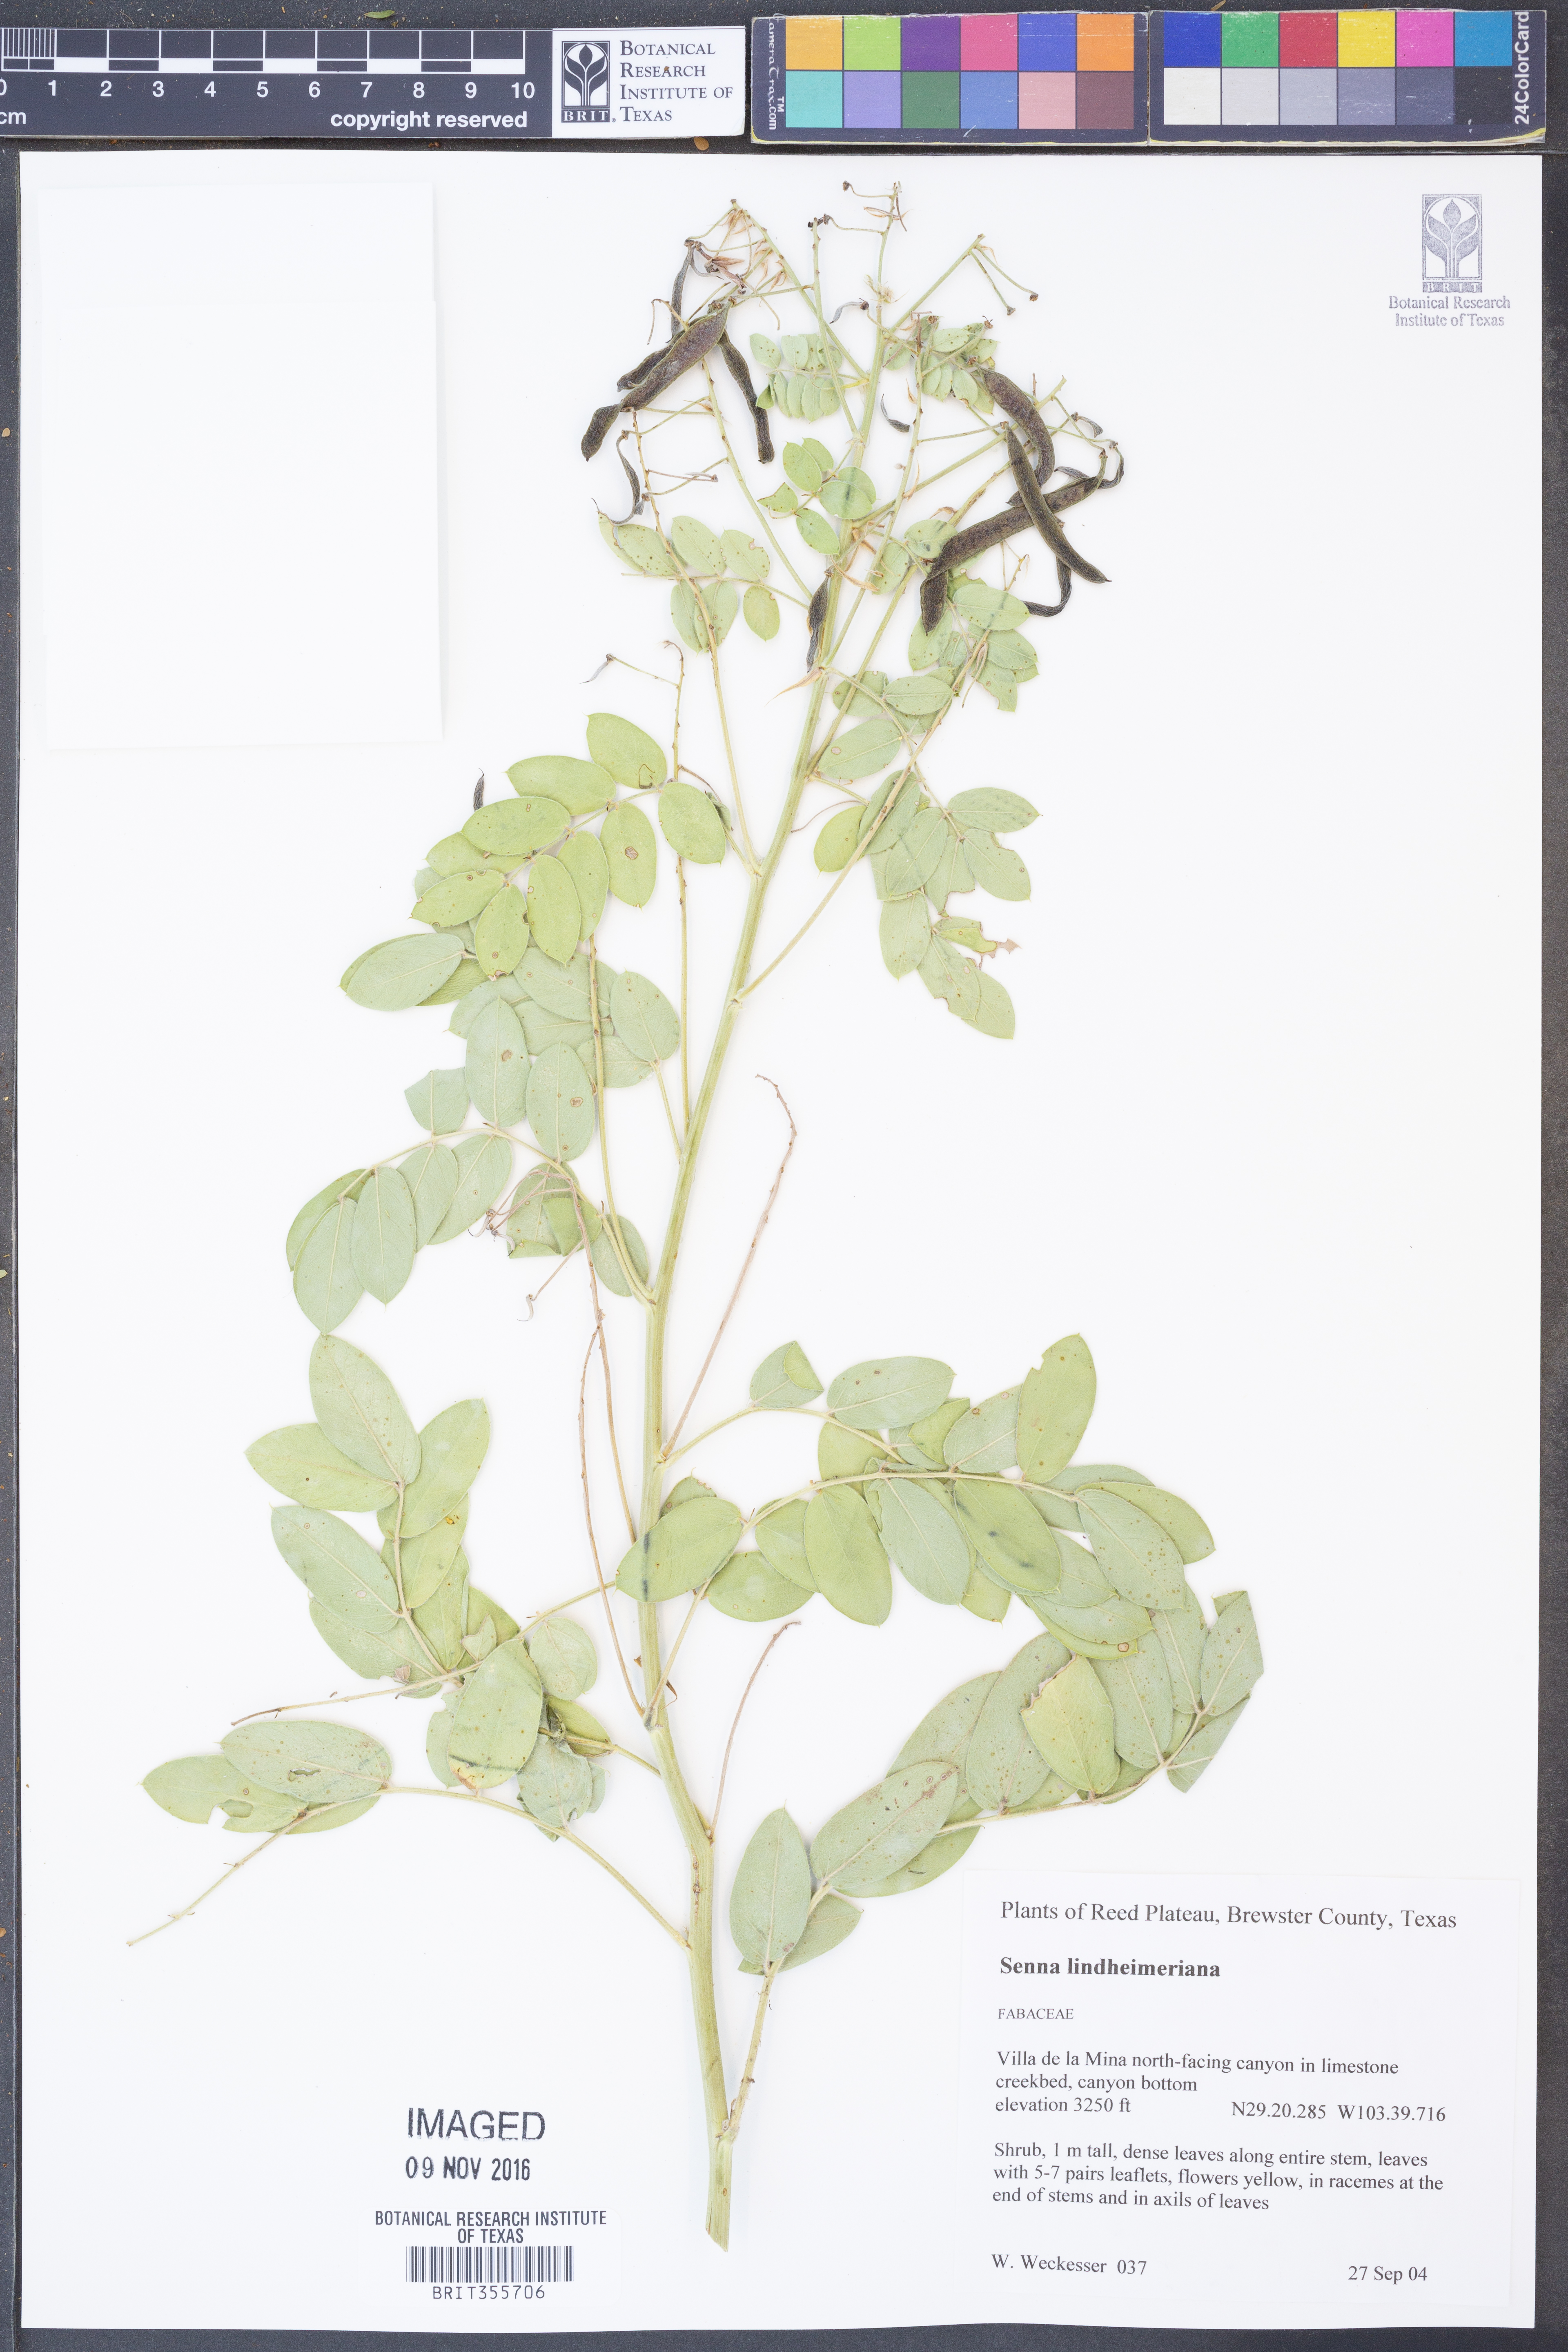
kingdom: Plantae
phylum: Tracheophyta
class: Magnoliopsida
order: Fabales
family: Fabaceae
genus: Senna
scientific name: Senna lindheimeriana
